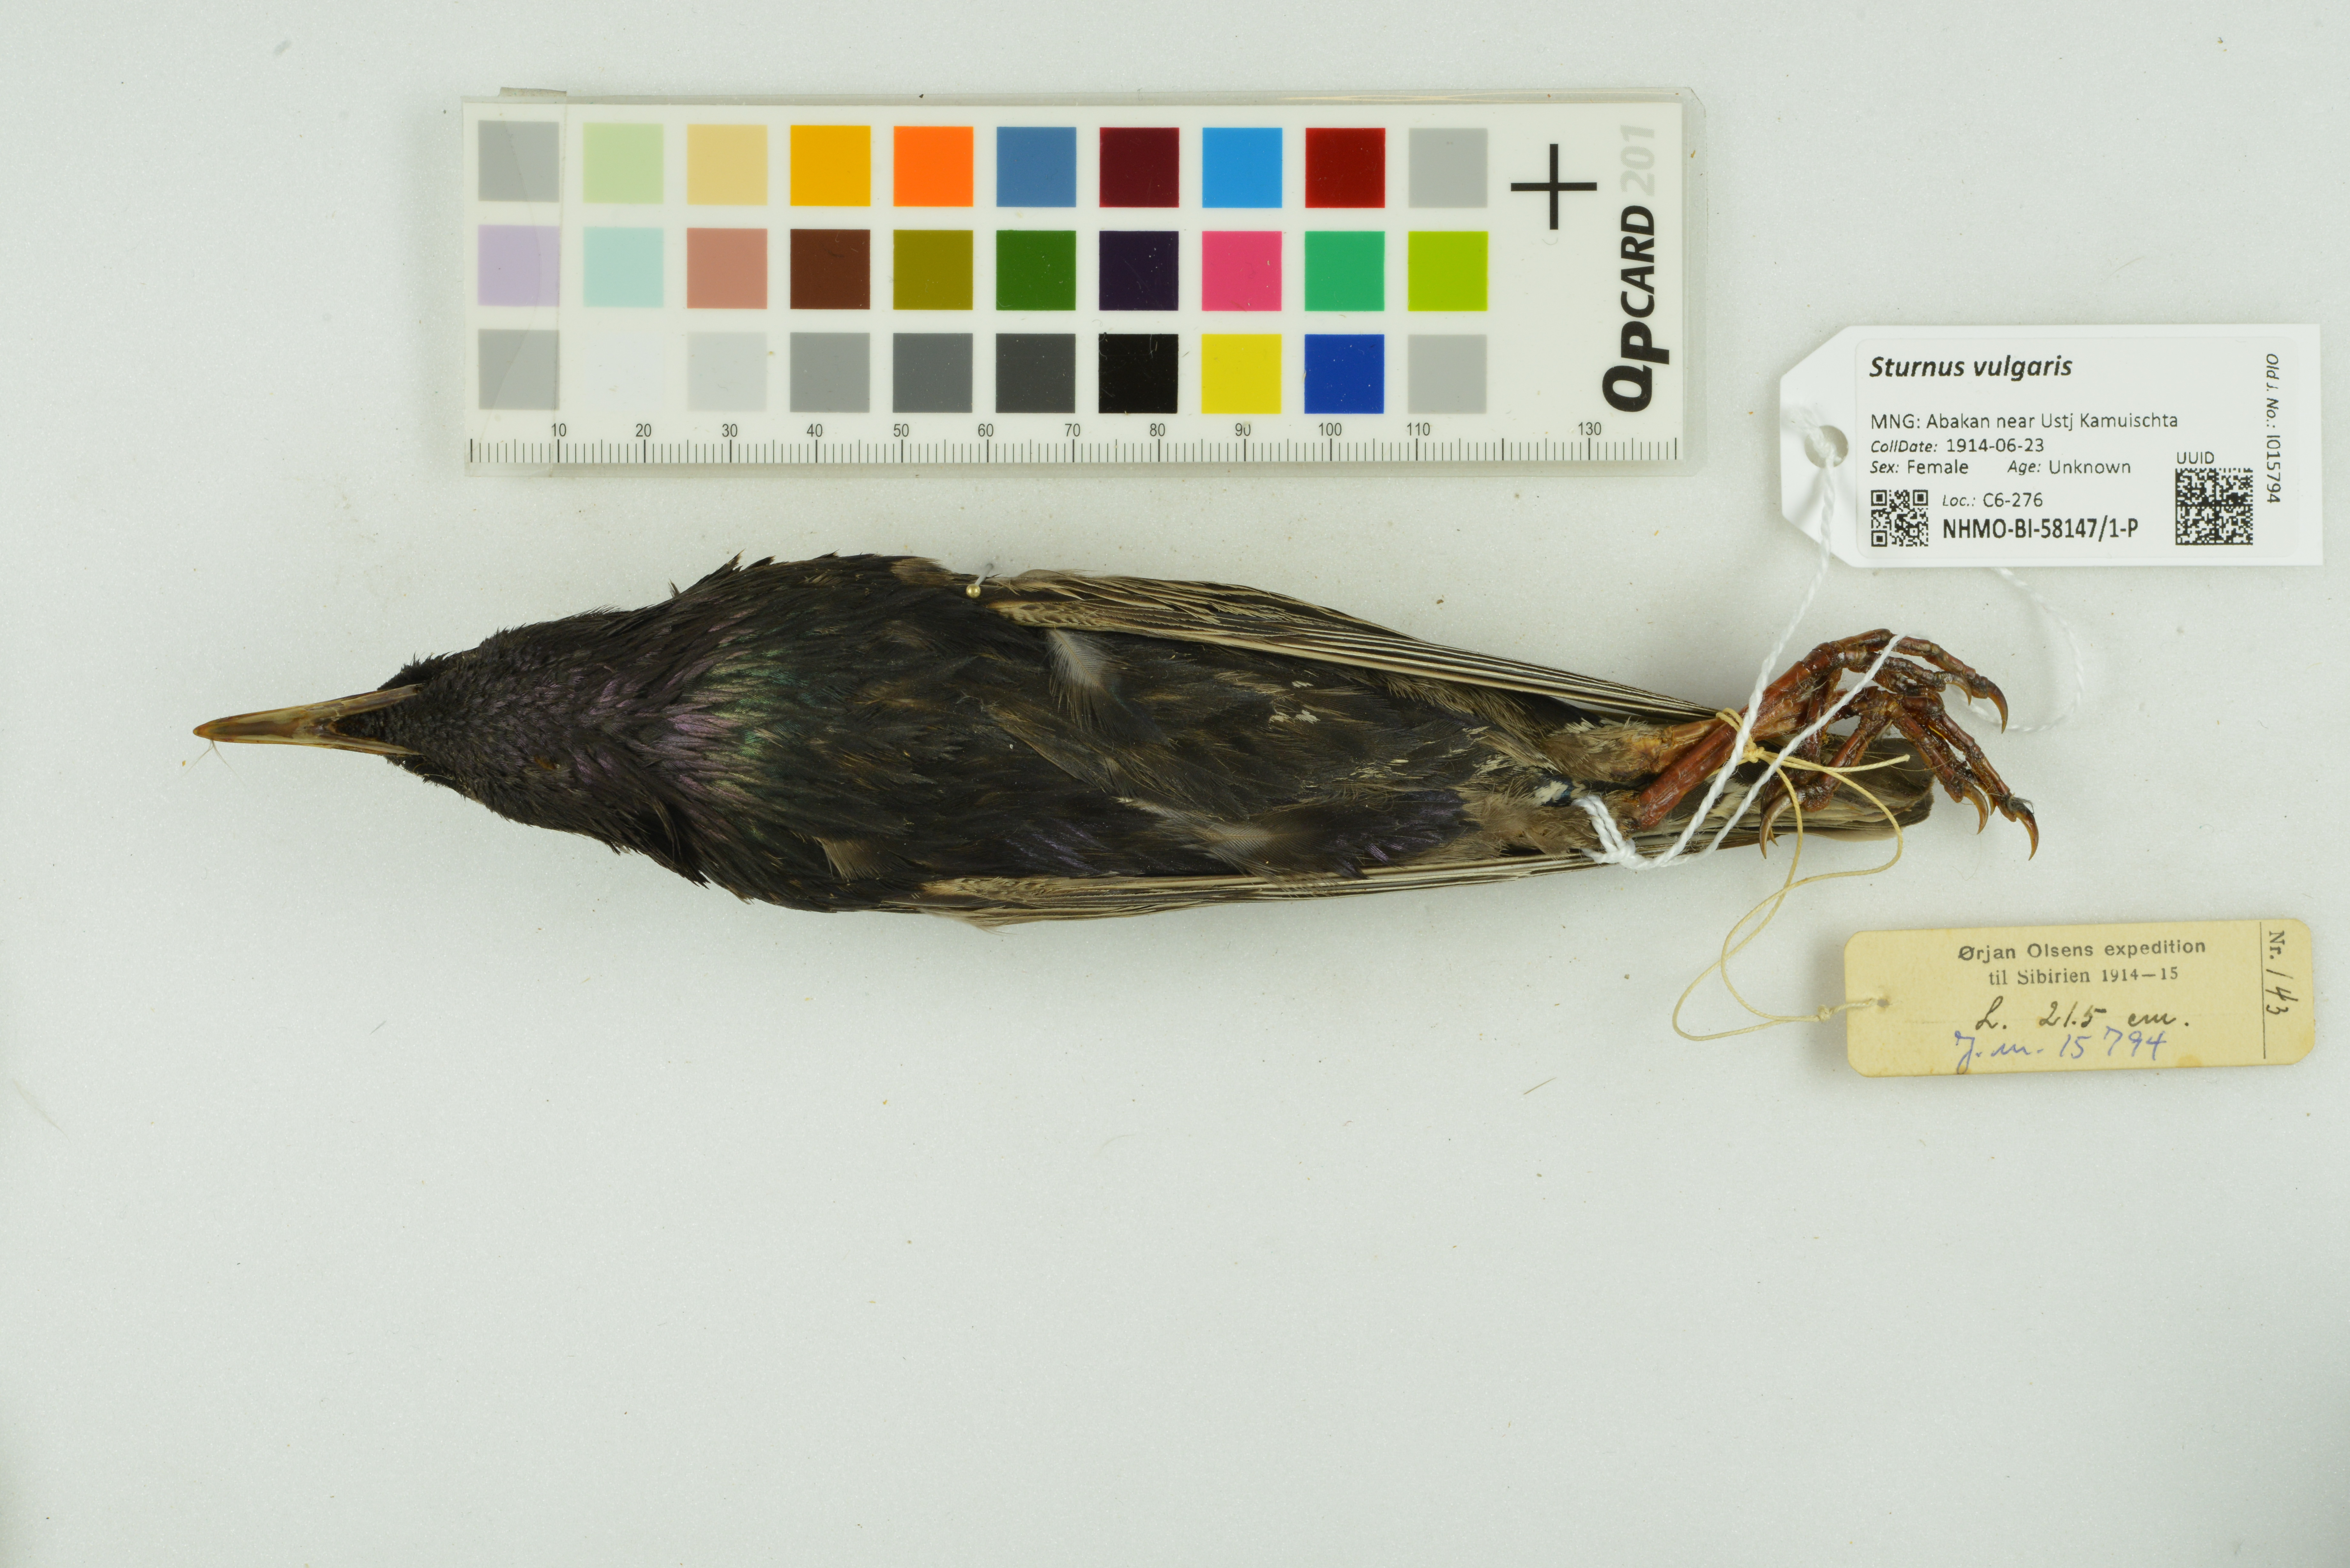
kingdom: Animalia
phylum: Chordata
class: Aves
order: Passeriformes
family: Sturnidae
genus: Sturnus
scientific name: Sturnus vulgaris
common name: Common starling
